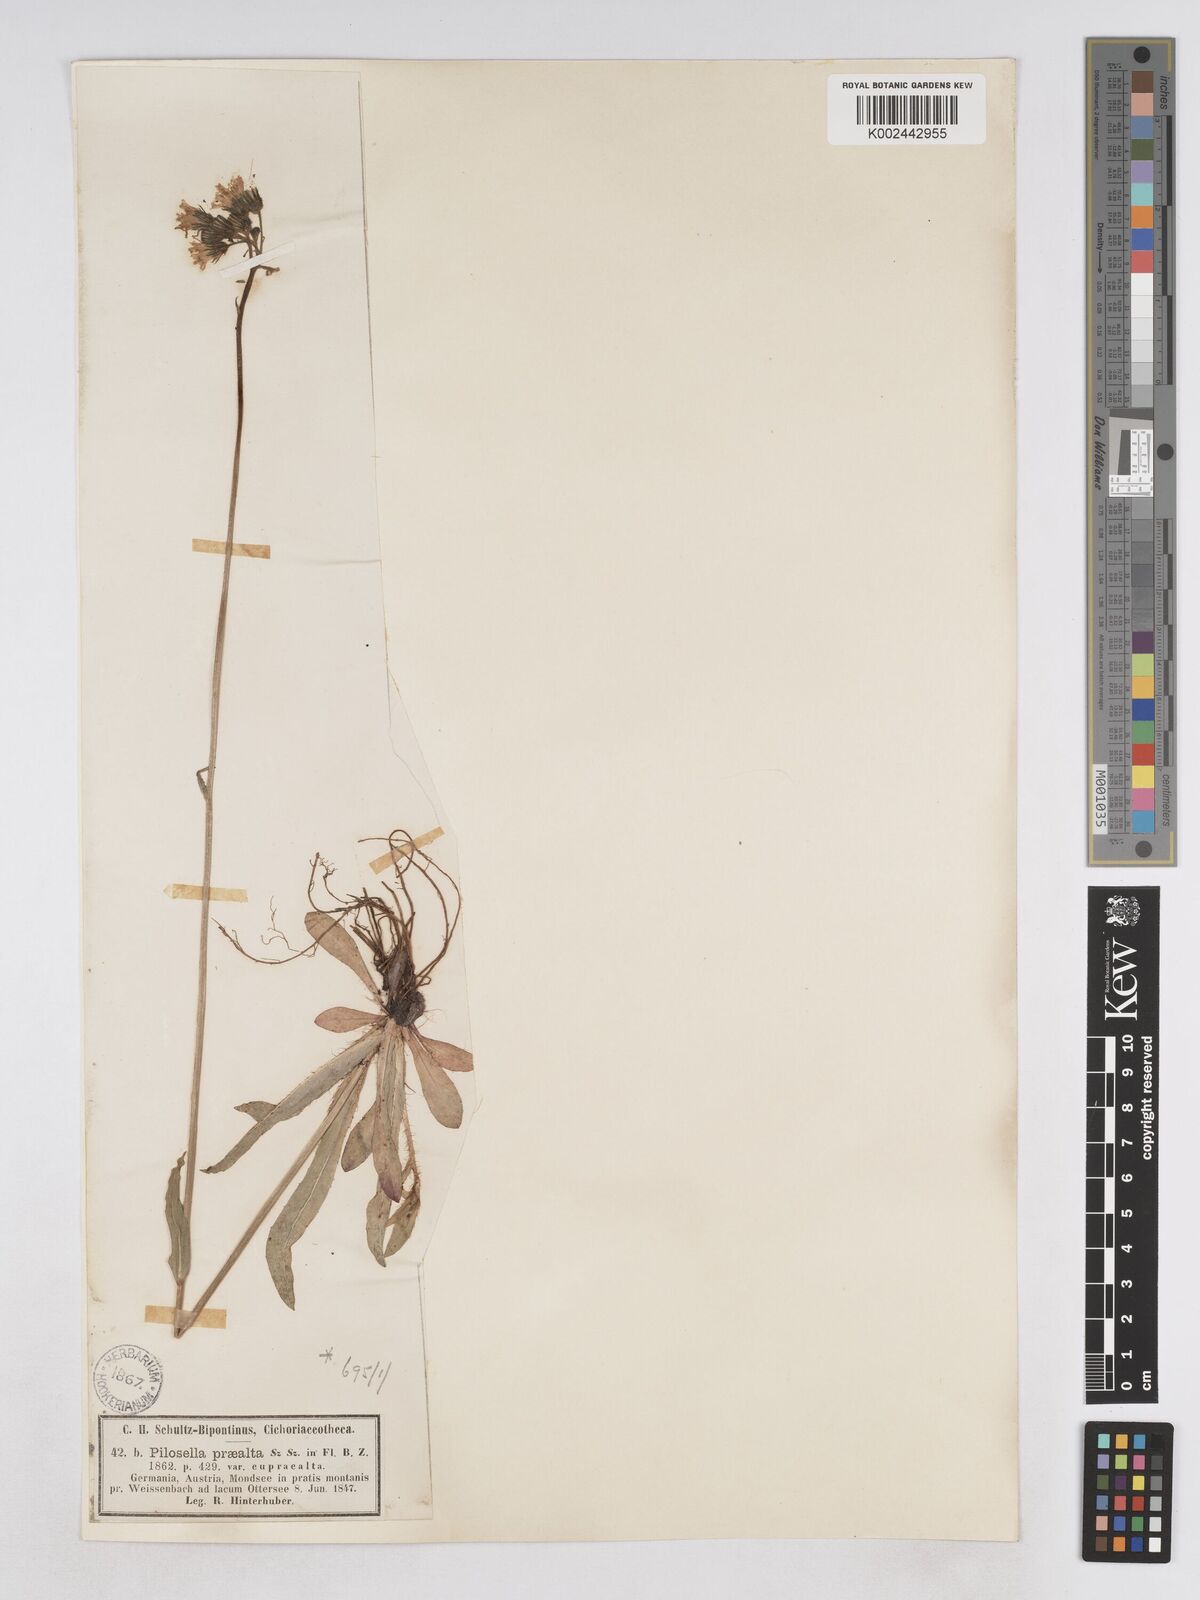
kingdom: Plantae
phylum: Tracheophyta
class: Magnoliopsida
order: Asterales
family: Asteraceae
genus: Pilosella
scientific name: Pilosella piloselloides
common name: Glaucous king-devil
